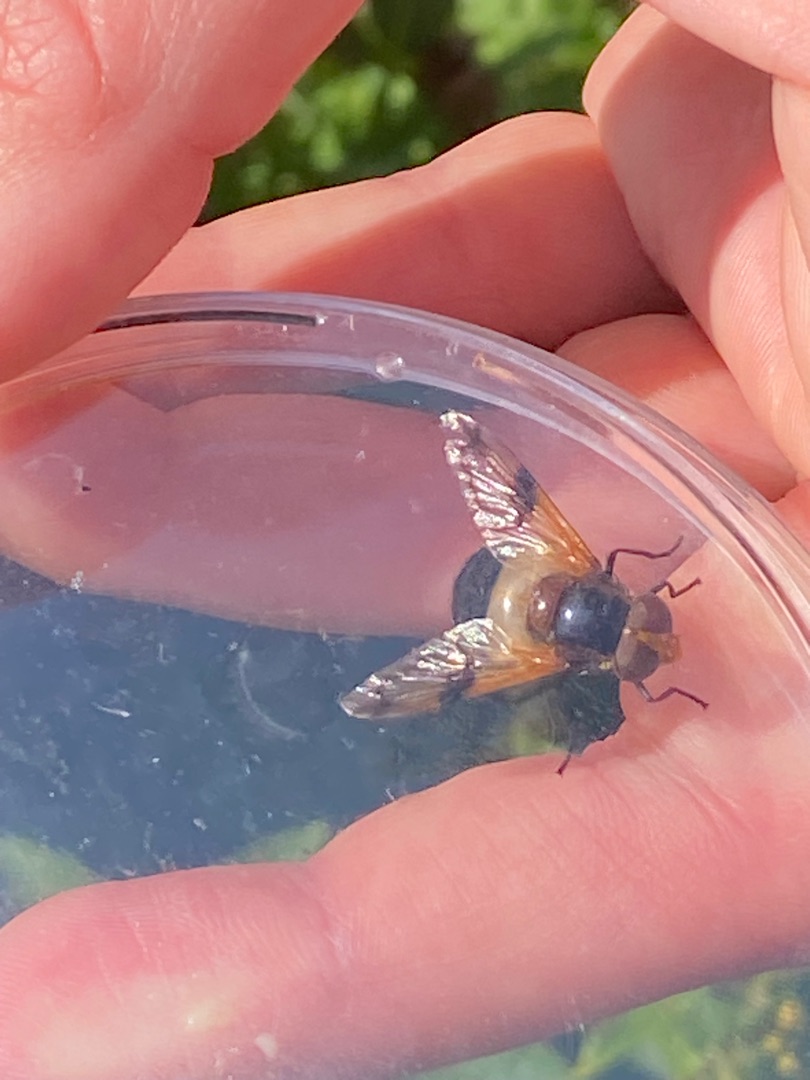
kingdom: Animalia
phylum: Arthropoda
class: Insecta
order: Diptera
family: Syrphidae
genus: Volucella
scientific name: Volucella pellucens
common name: Hvidbåndet humlesvirreflue
